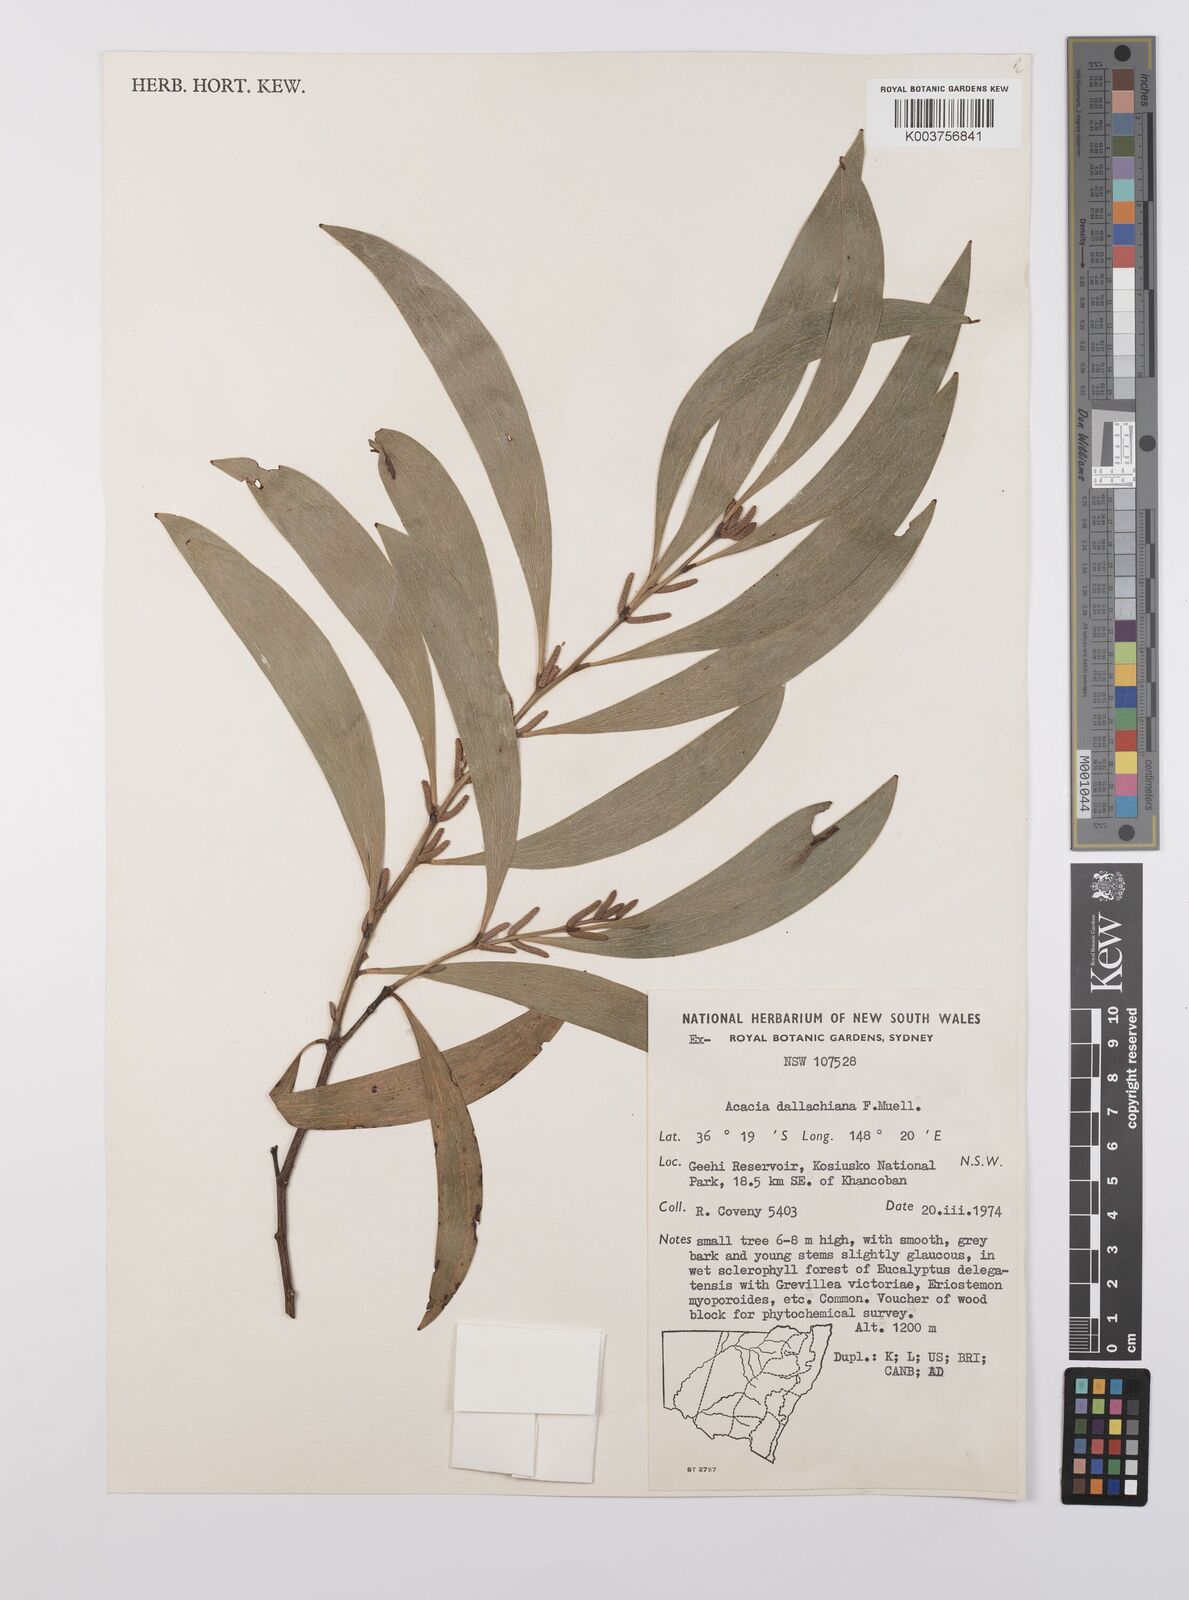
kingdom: Plantae
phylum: Tracheophyta
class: Magnoliopsida
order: Fabales
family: Fabaceae
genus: Acacia
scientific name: Acacia dallachiana
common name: Catkin wattle
